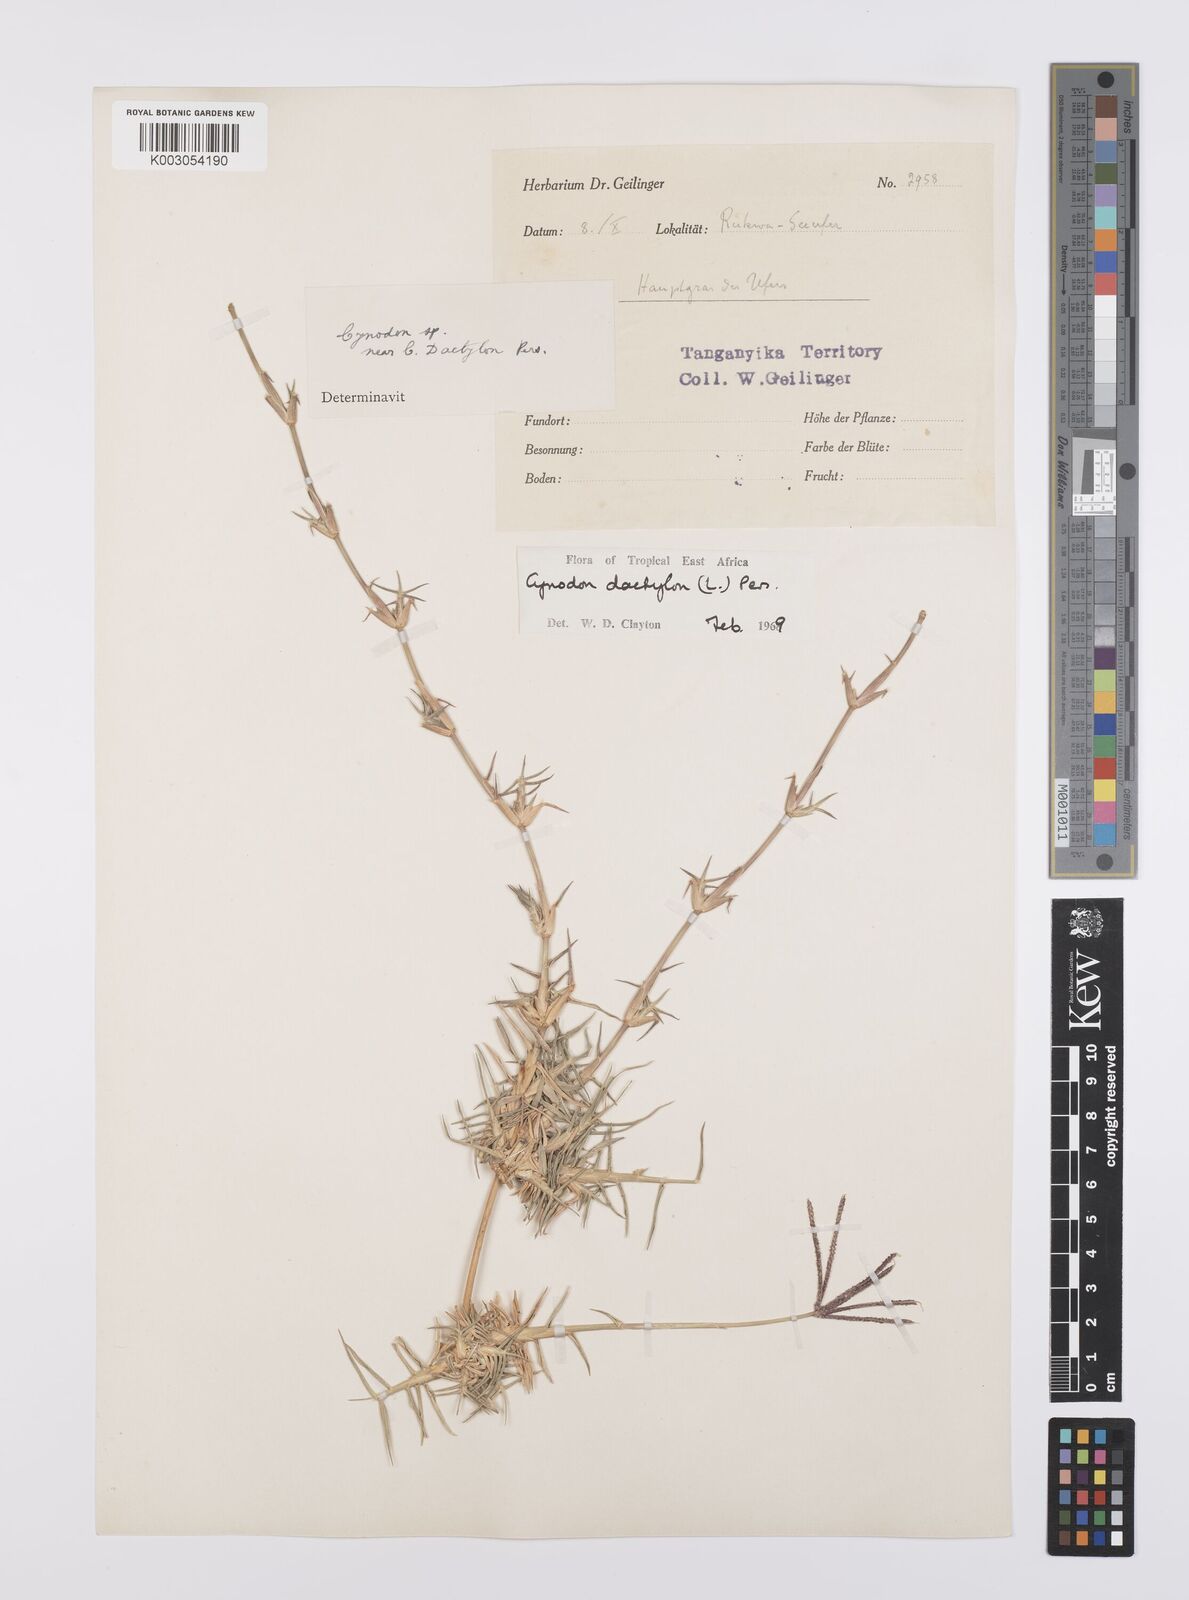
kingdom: Plantae
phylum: Tracheophyta
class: Liliopsida
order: Poales
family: Poaceae
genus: Cynodon
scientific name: Cynodon dactylon
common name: Bermuda grass
